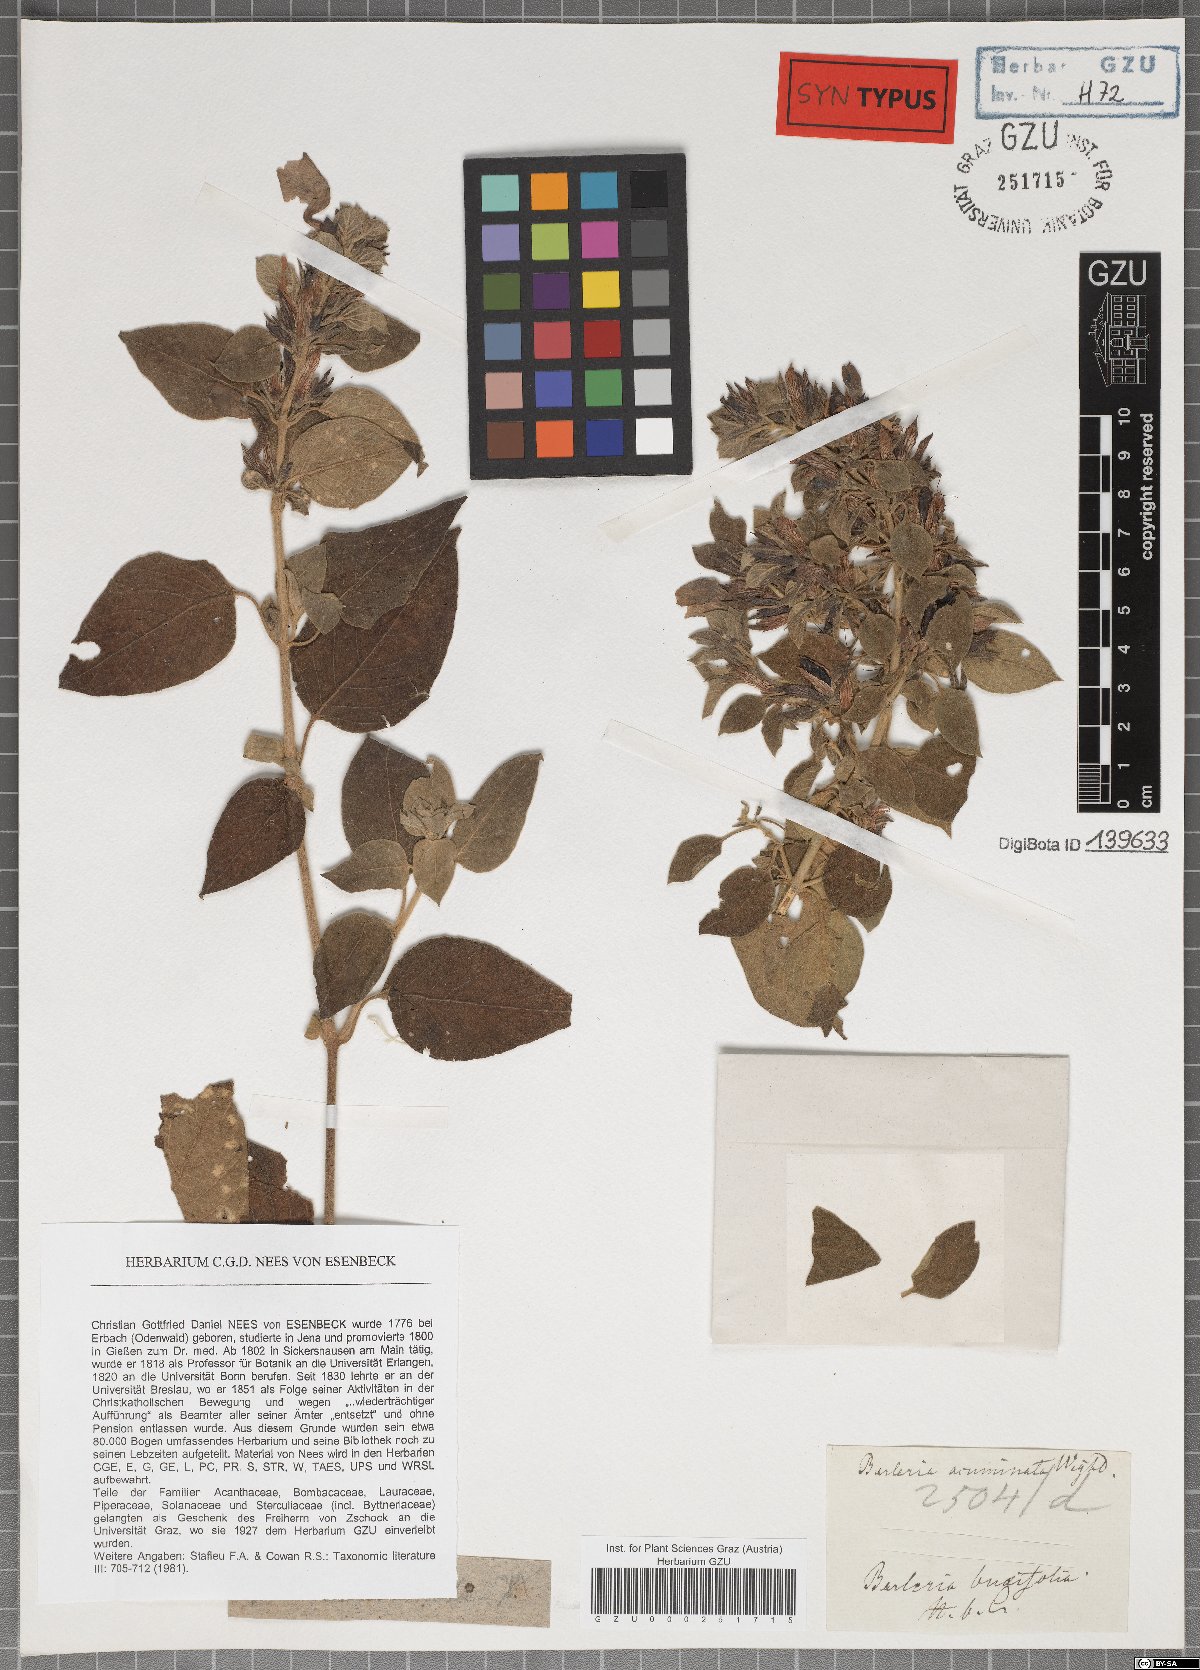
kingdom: Plantae
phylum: Tracheophyta
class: Magnoliopsida
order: Lamiales
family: Acanthaceae
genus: Barleria
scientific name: Barleria acuminata
